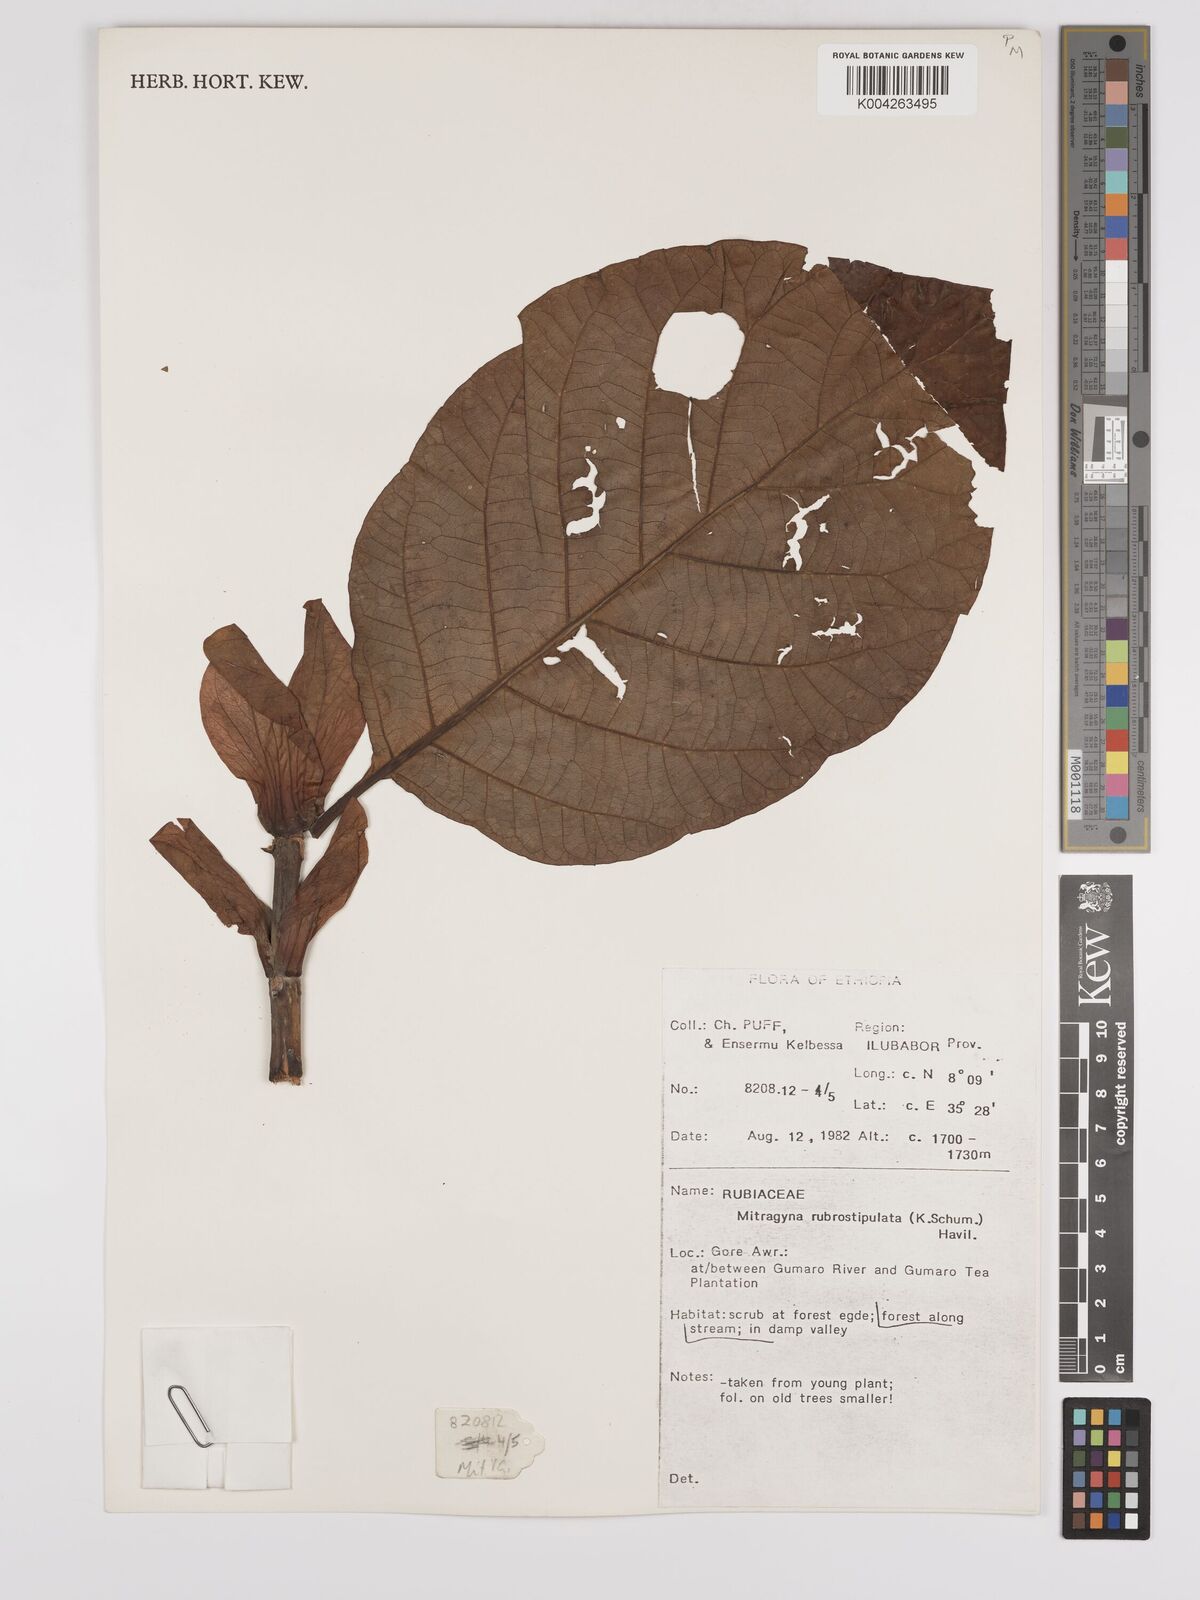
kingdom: Plantae
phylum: Tracheophyta
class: Magnoliopsida
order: Gentianales
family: Rubiaceae
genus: Mitragyna
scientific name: Mitragyna rubrostipulata
